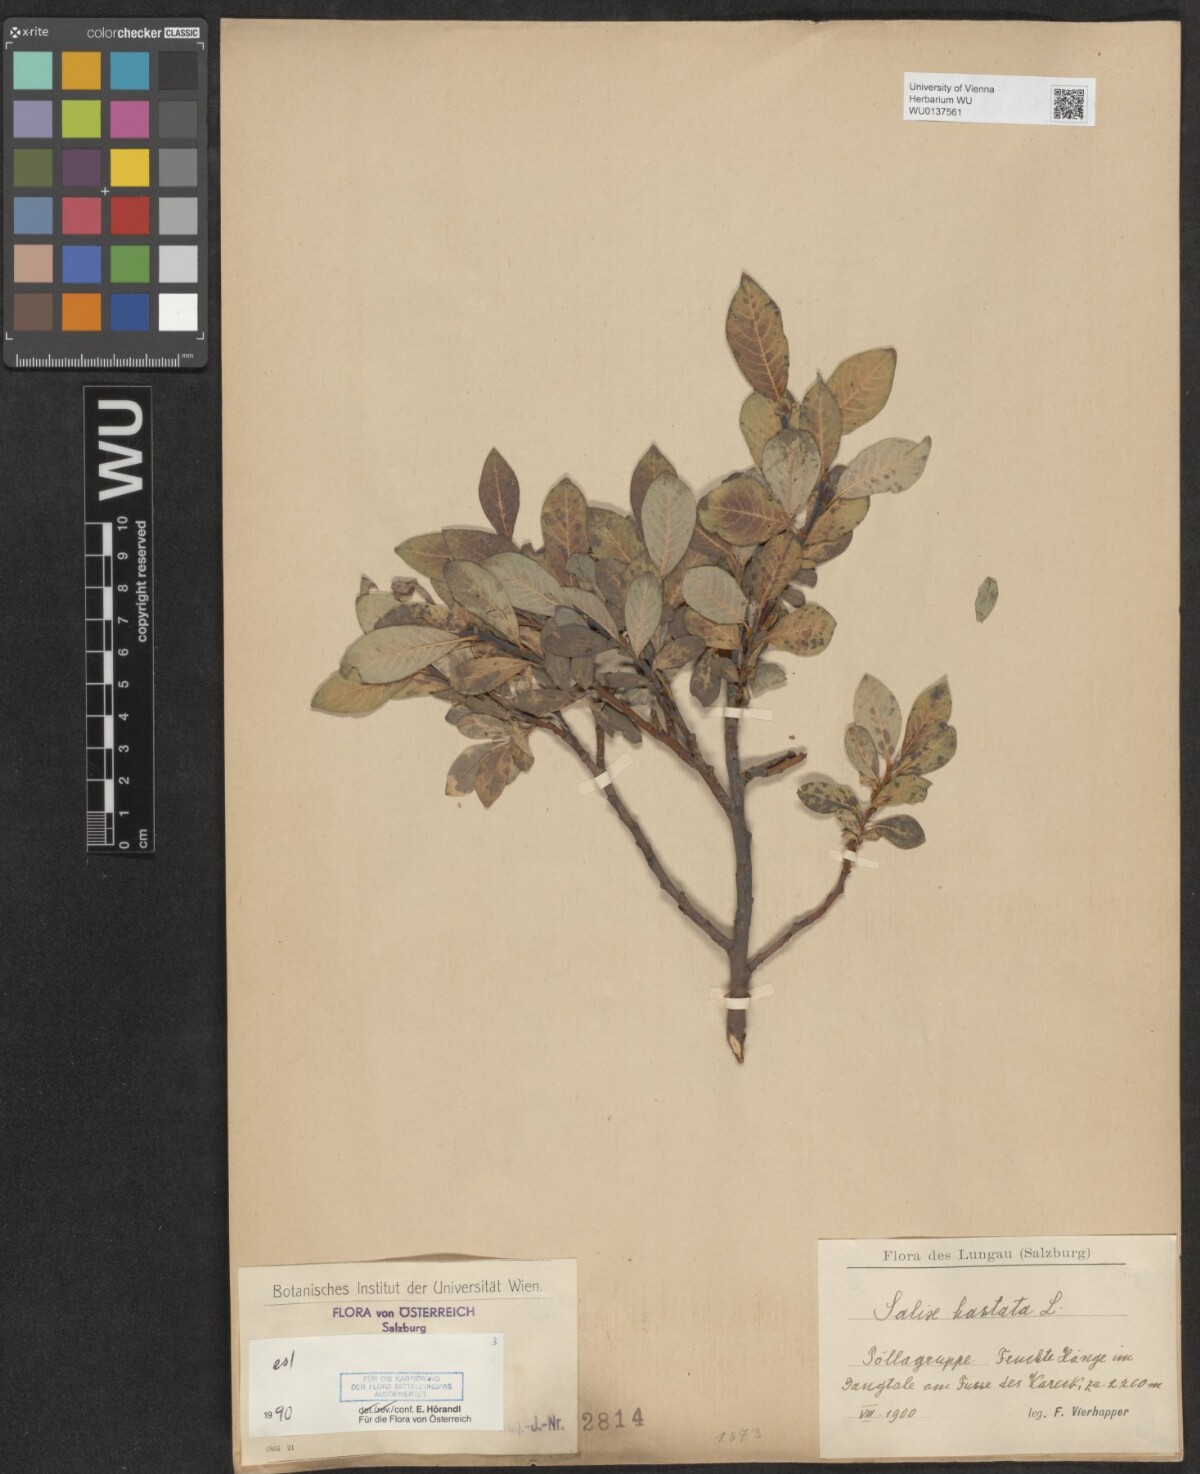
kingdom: Plantae
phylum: Tracheophyta
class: Magnoliopsida
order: Malpighiales
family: Salicaceae
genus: Salix
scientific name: Salix hastata
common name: Halberd willow
